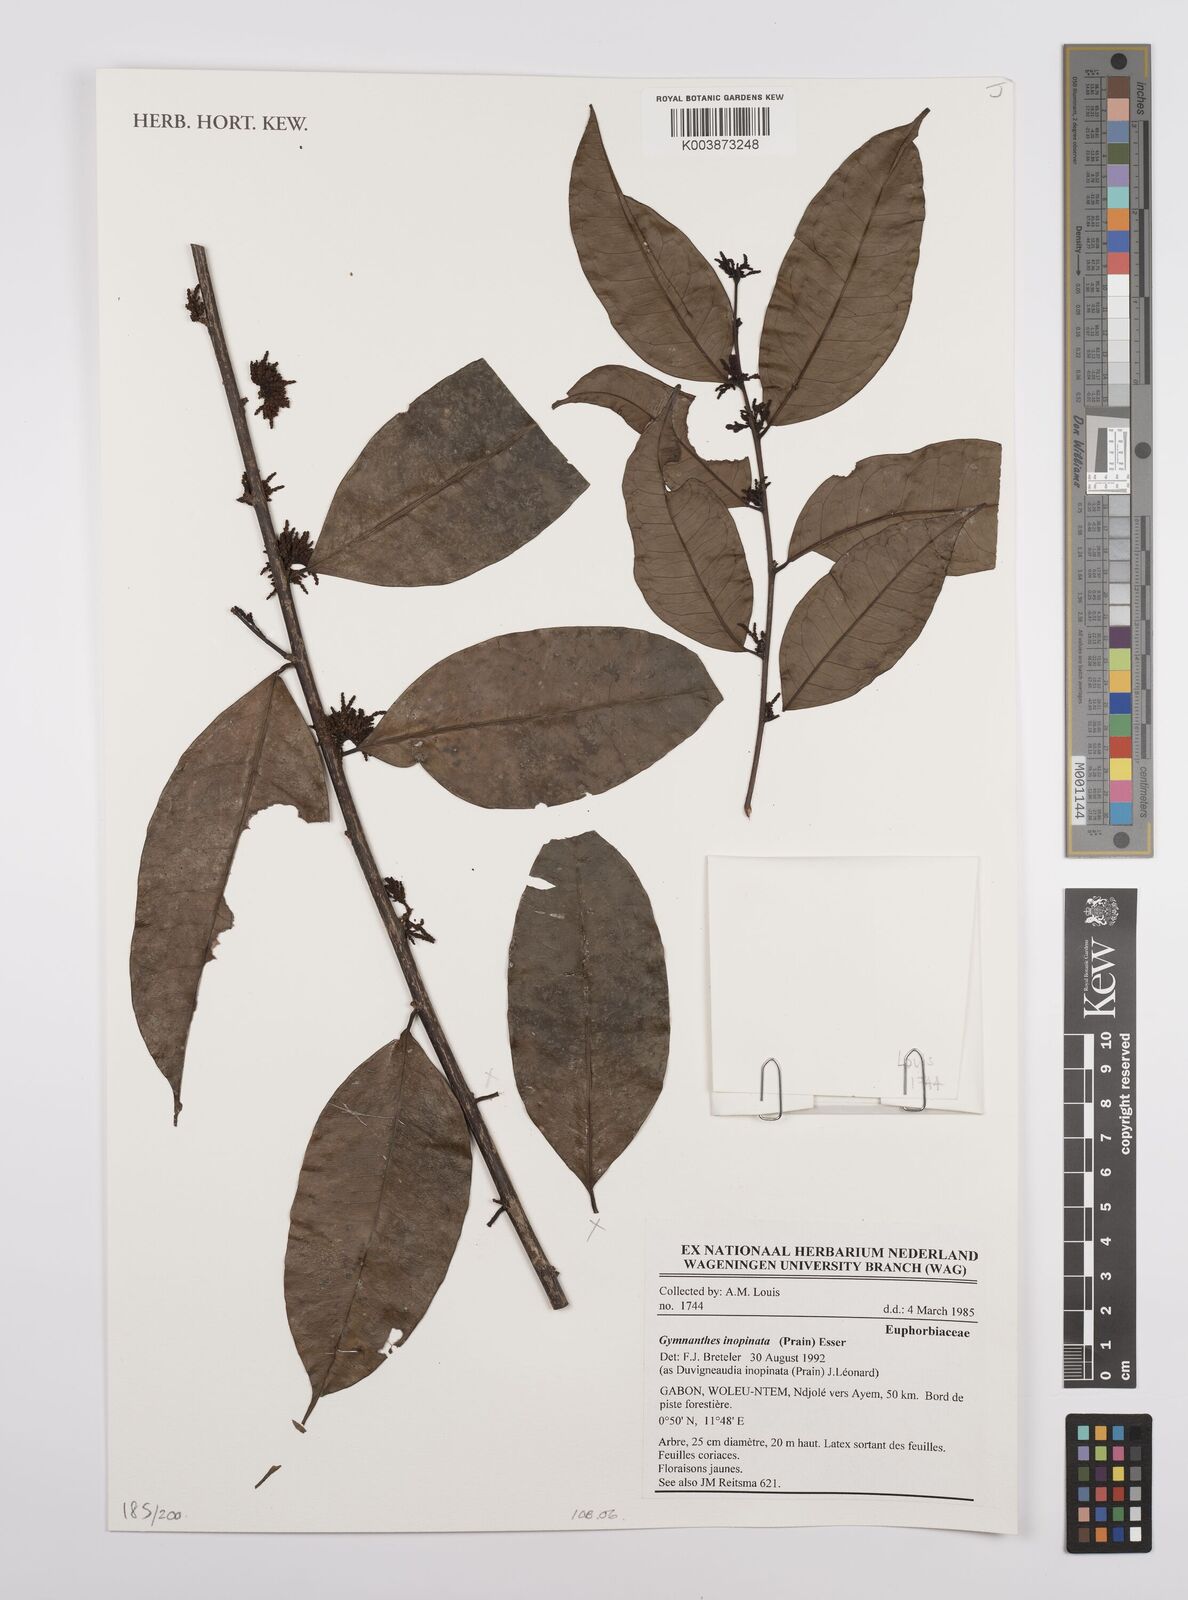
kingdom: Plantae
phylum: Tracheophyta
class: Magnoliopsida
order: Malpighiales
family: Euphorbiaceae
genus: Gymnanthes
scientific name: Gymnanthes inopinata
